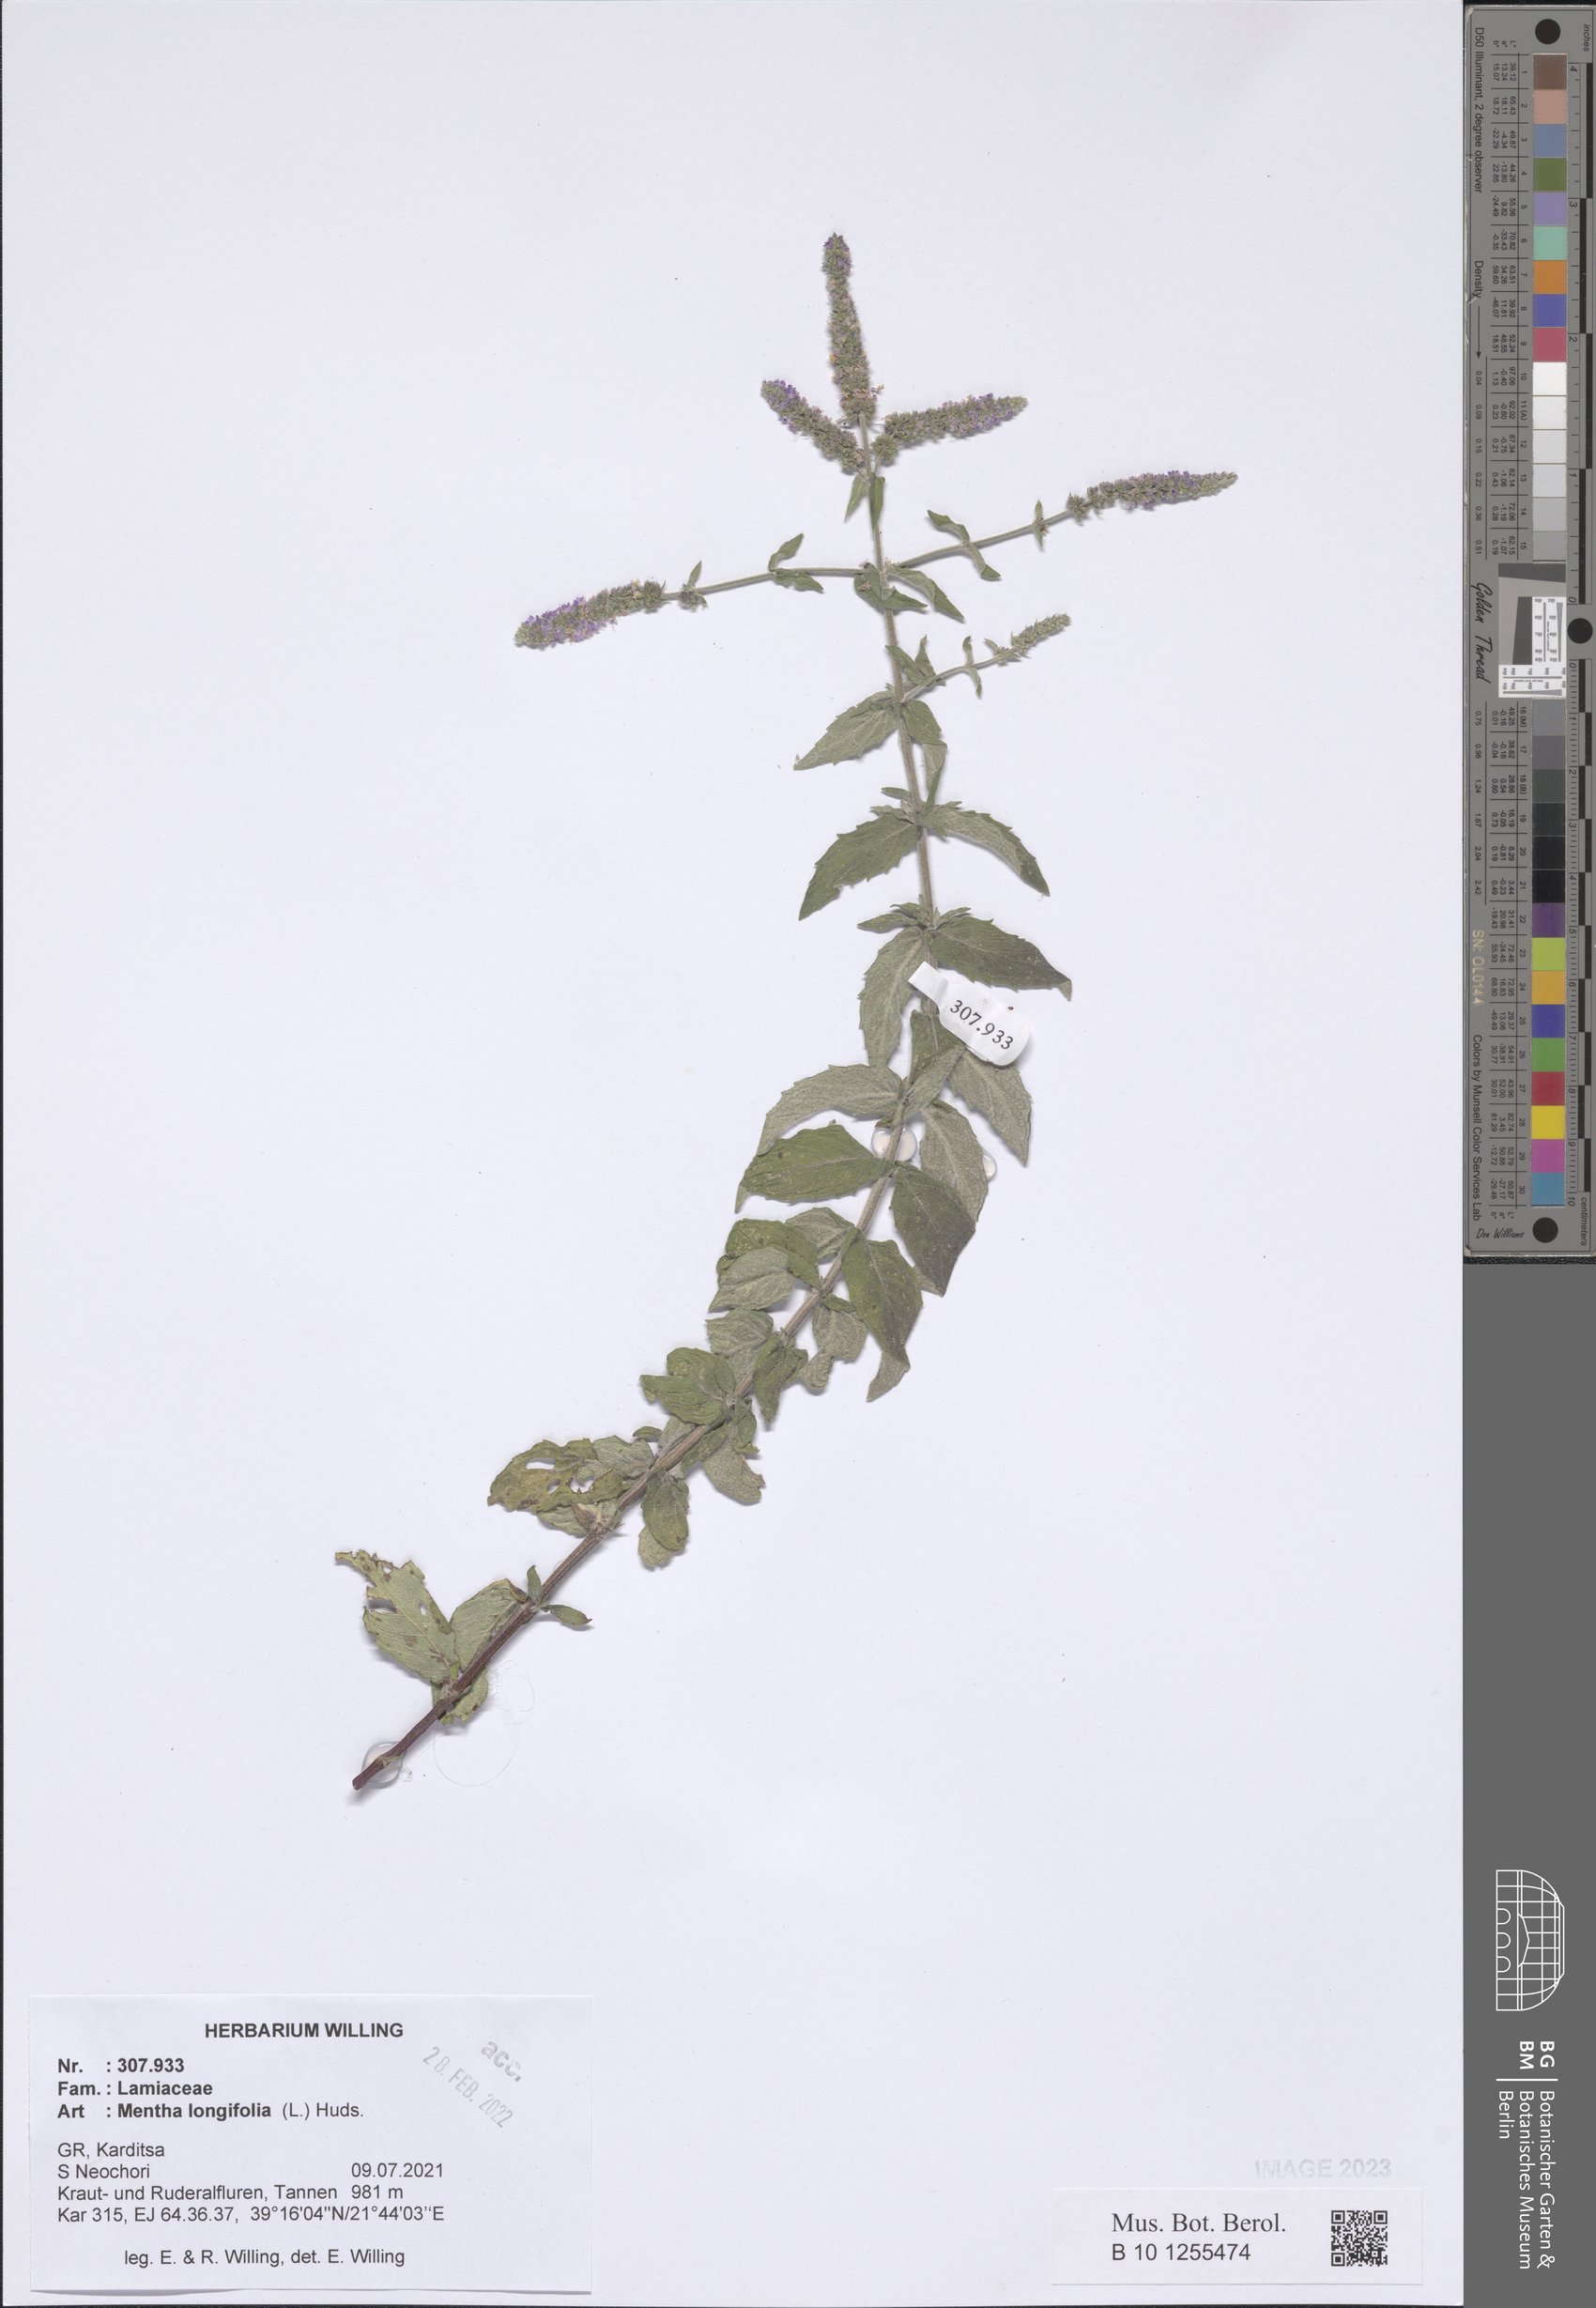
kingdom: Plantae
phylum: Tracheophyta
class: Magnoliopsida
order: Lamiales
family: Lamiaceae
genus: Mentha
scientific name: Mentha longifolia
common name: Horse mint
